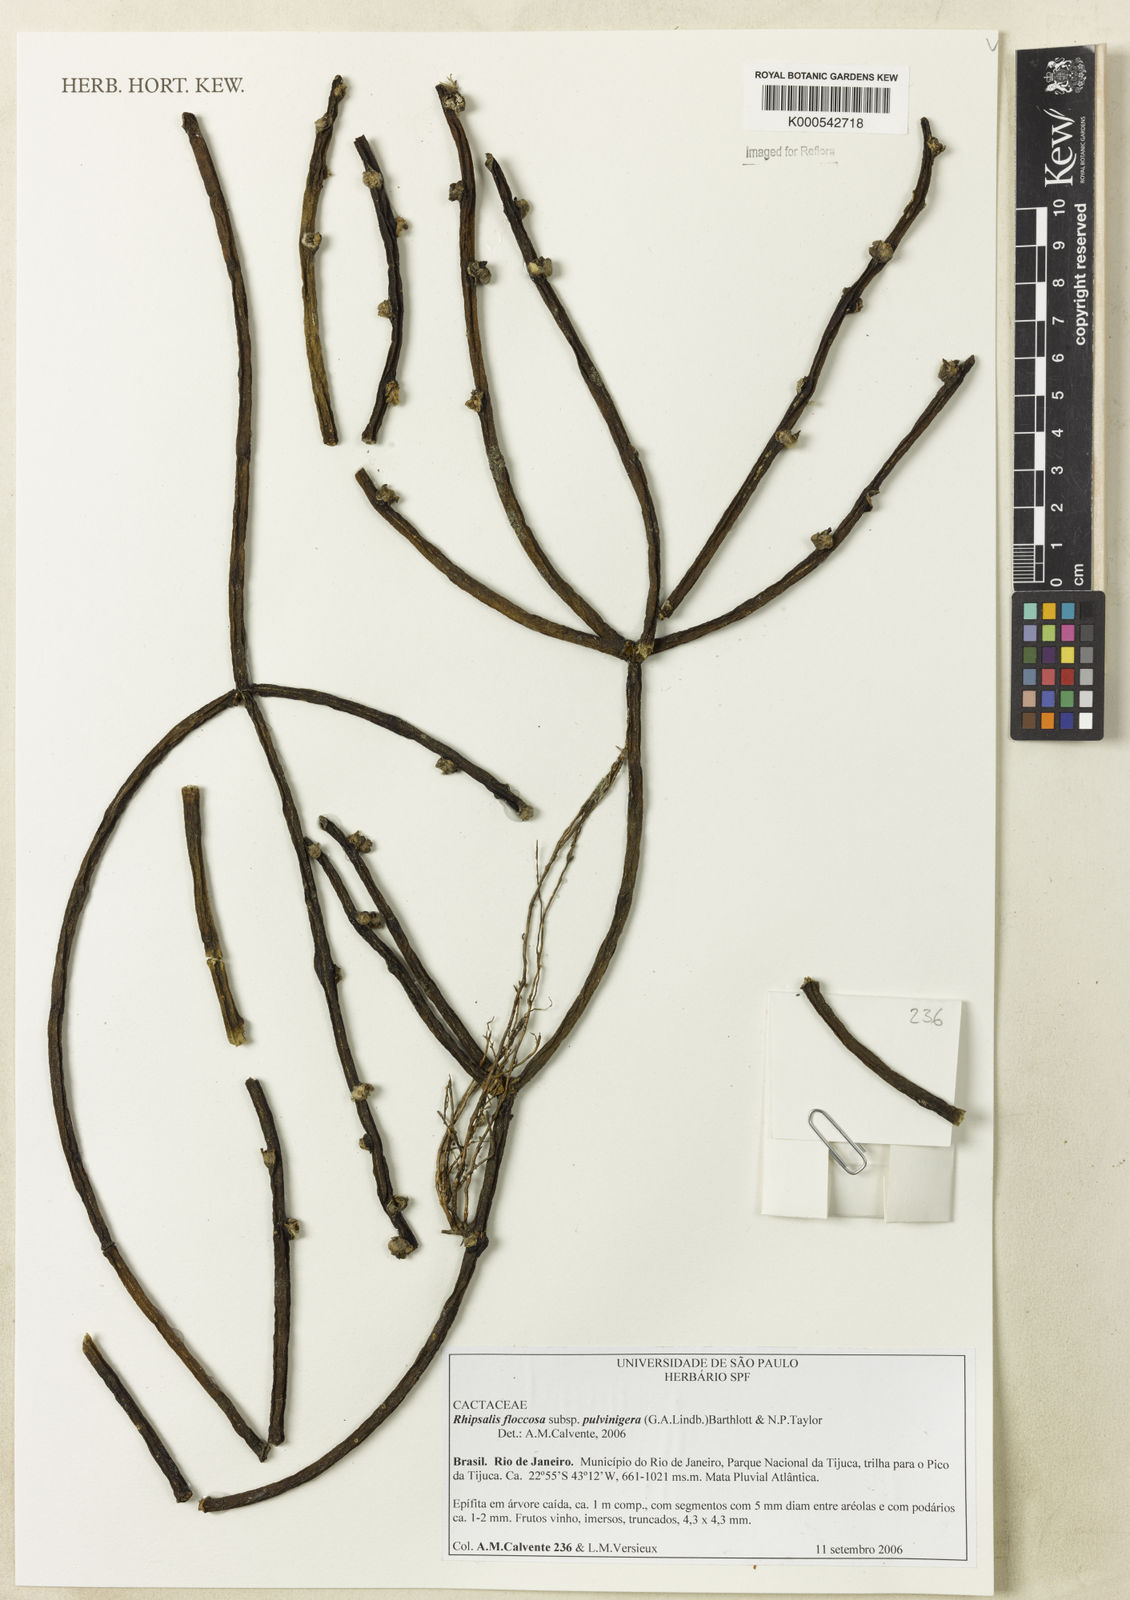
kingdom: Plantae
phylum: Tracheophyta
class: Magnoliopsida
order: Caryophyllales
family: Cactaceae
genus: Rhipsalis
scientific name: Rhipsalis floccosa
